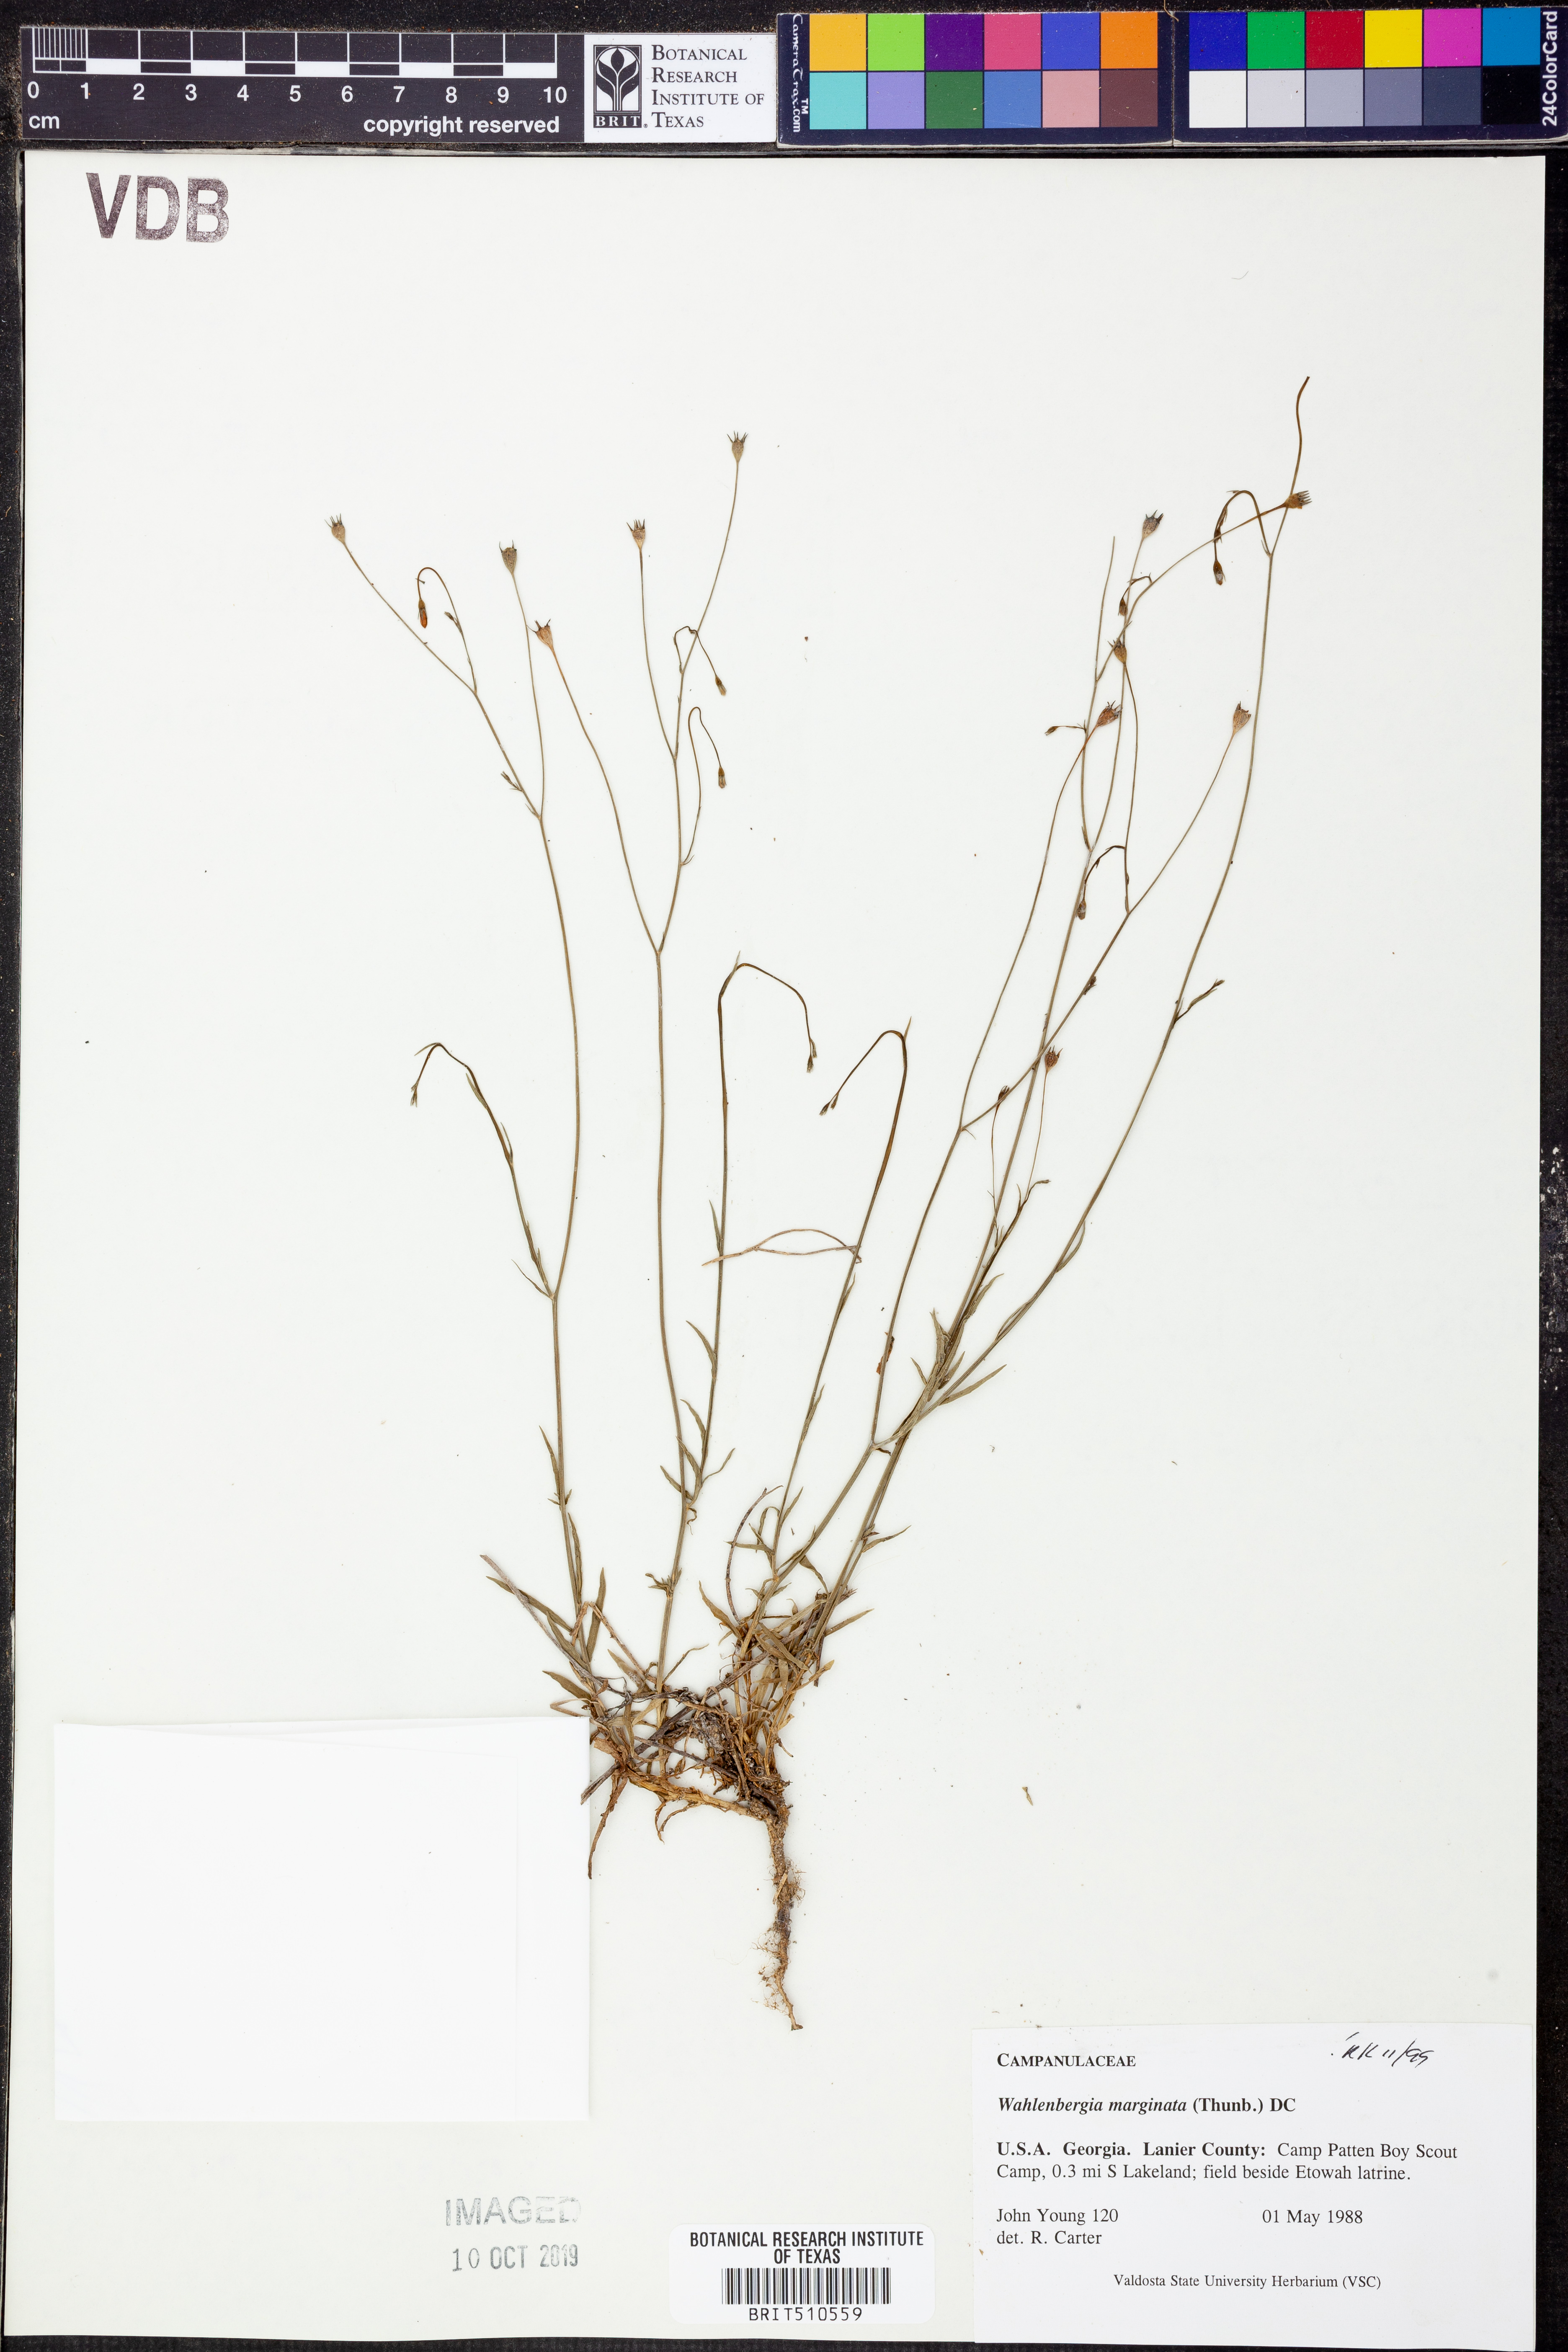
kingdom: Plantae
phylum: Tracheophyta
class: Magnoliopsida
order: Asterales
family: Campanulaceae
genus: Wahlenbergia
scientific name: Wahlenbergia marginata
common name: Southern rockbell
